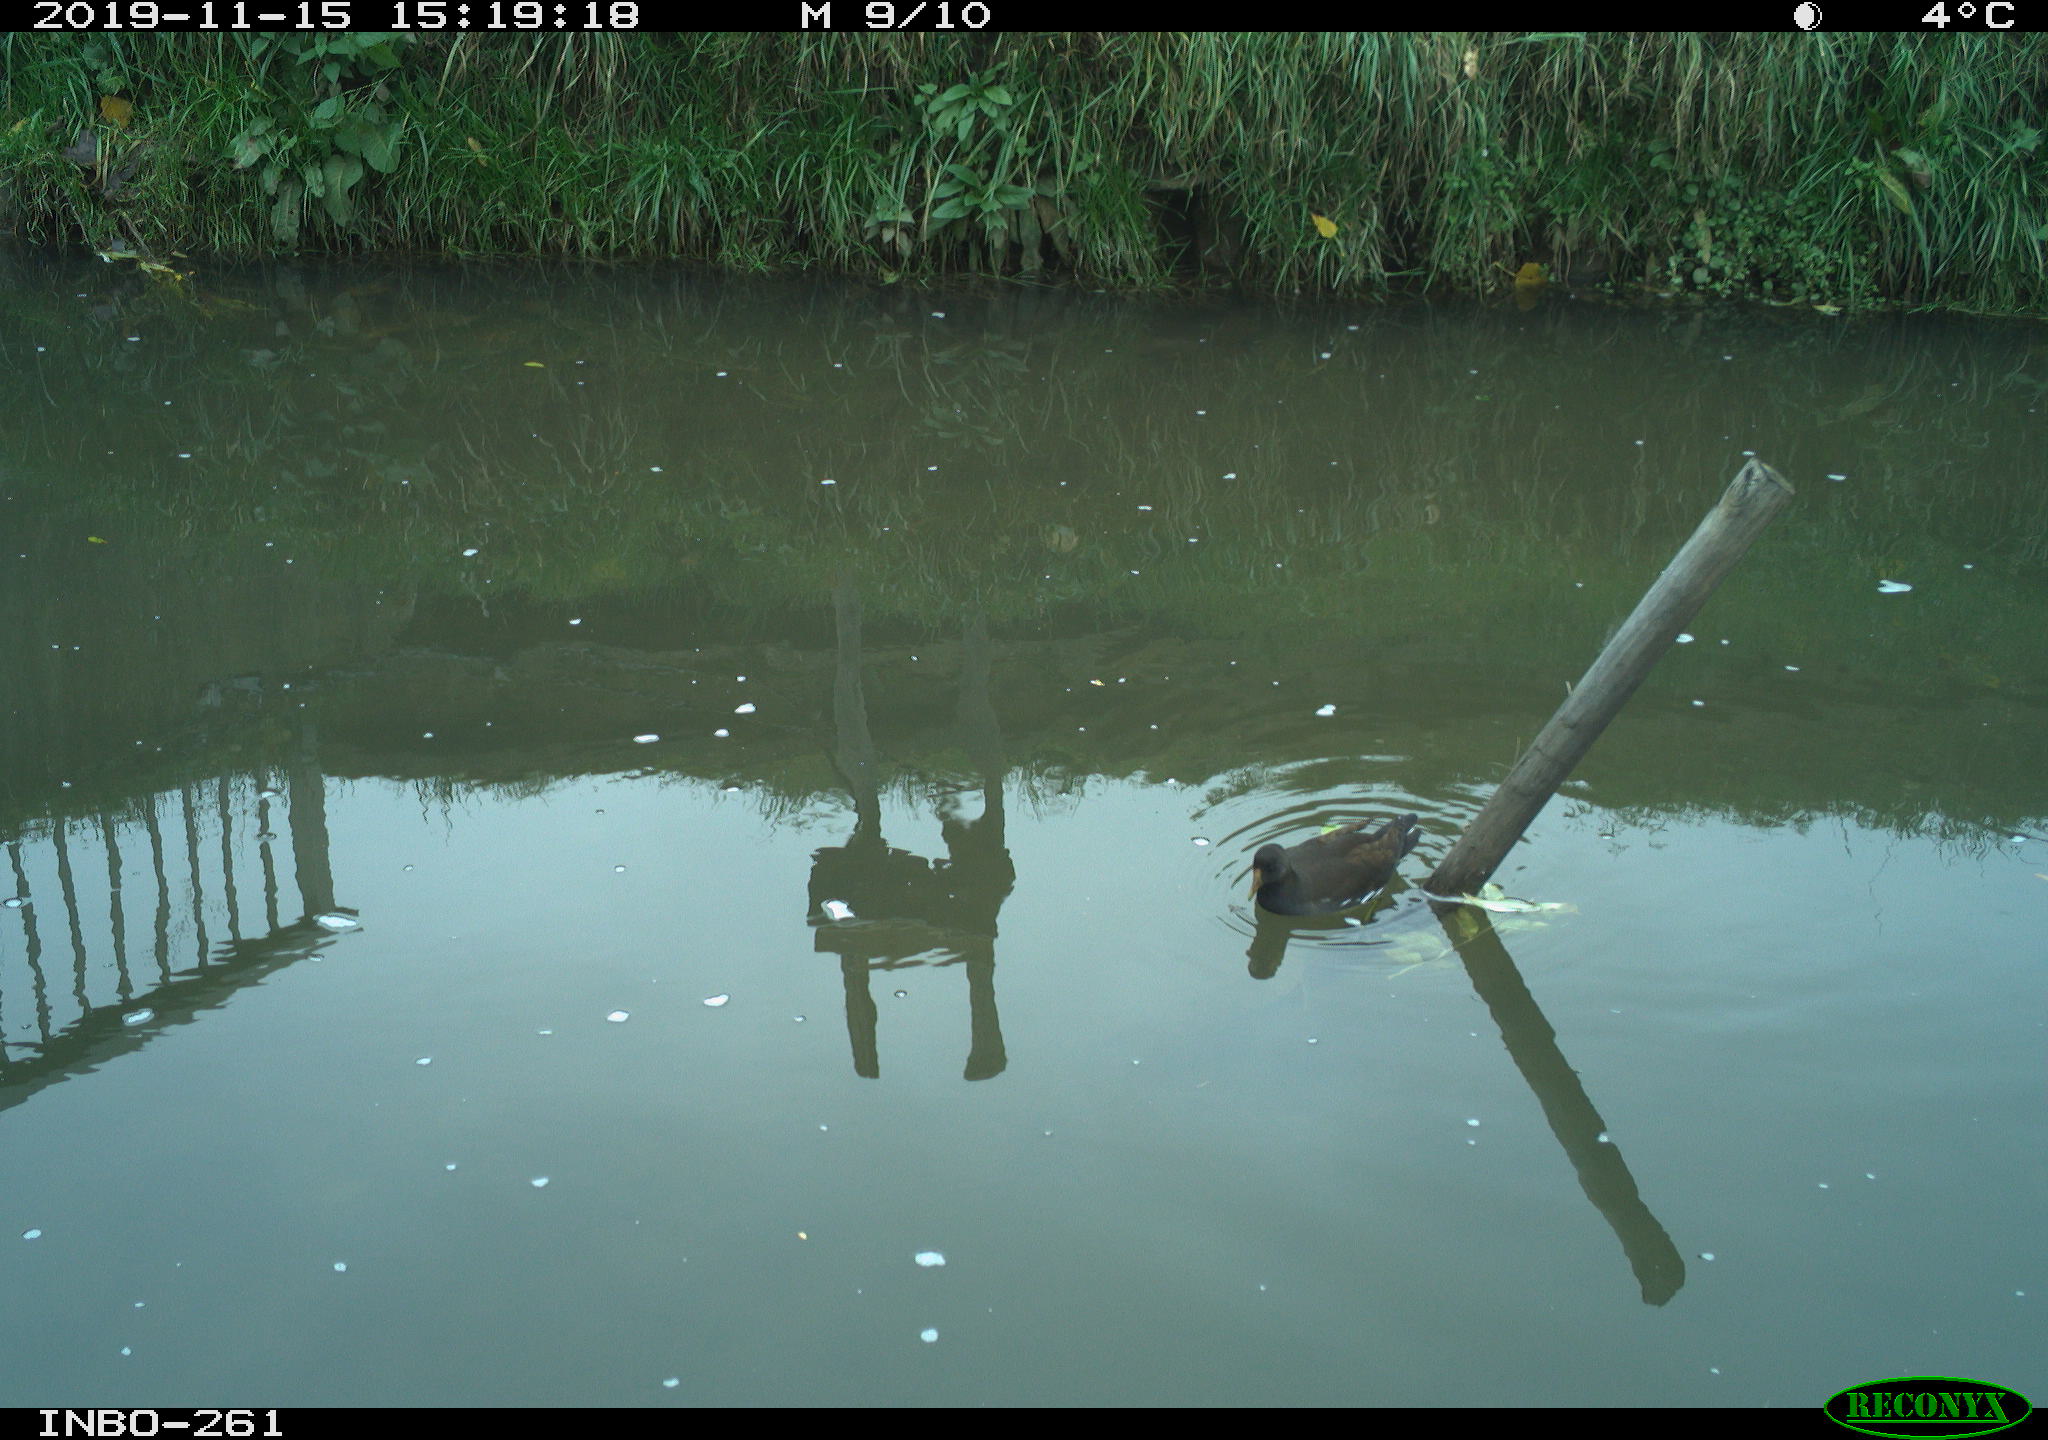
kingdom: Animalia
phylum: Chordata
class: Aves
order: Gruiformes
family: Rallidae
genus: Gallinula
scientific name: Gallinula chloropus
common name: Common moorhen
